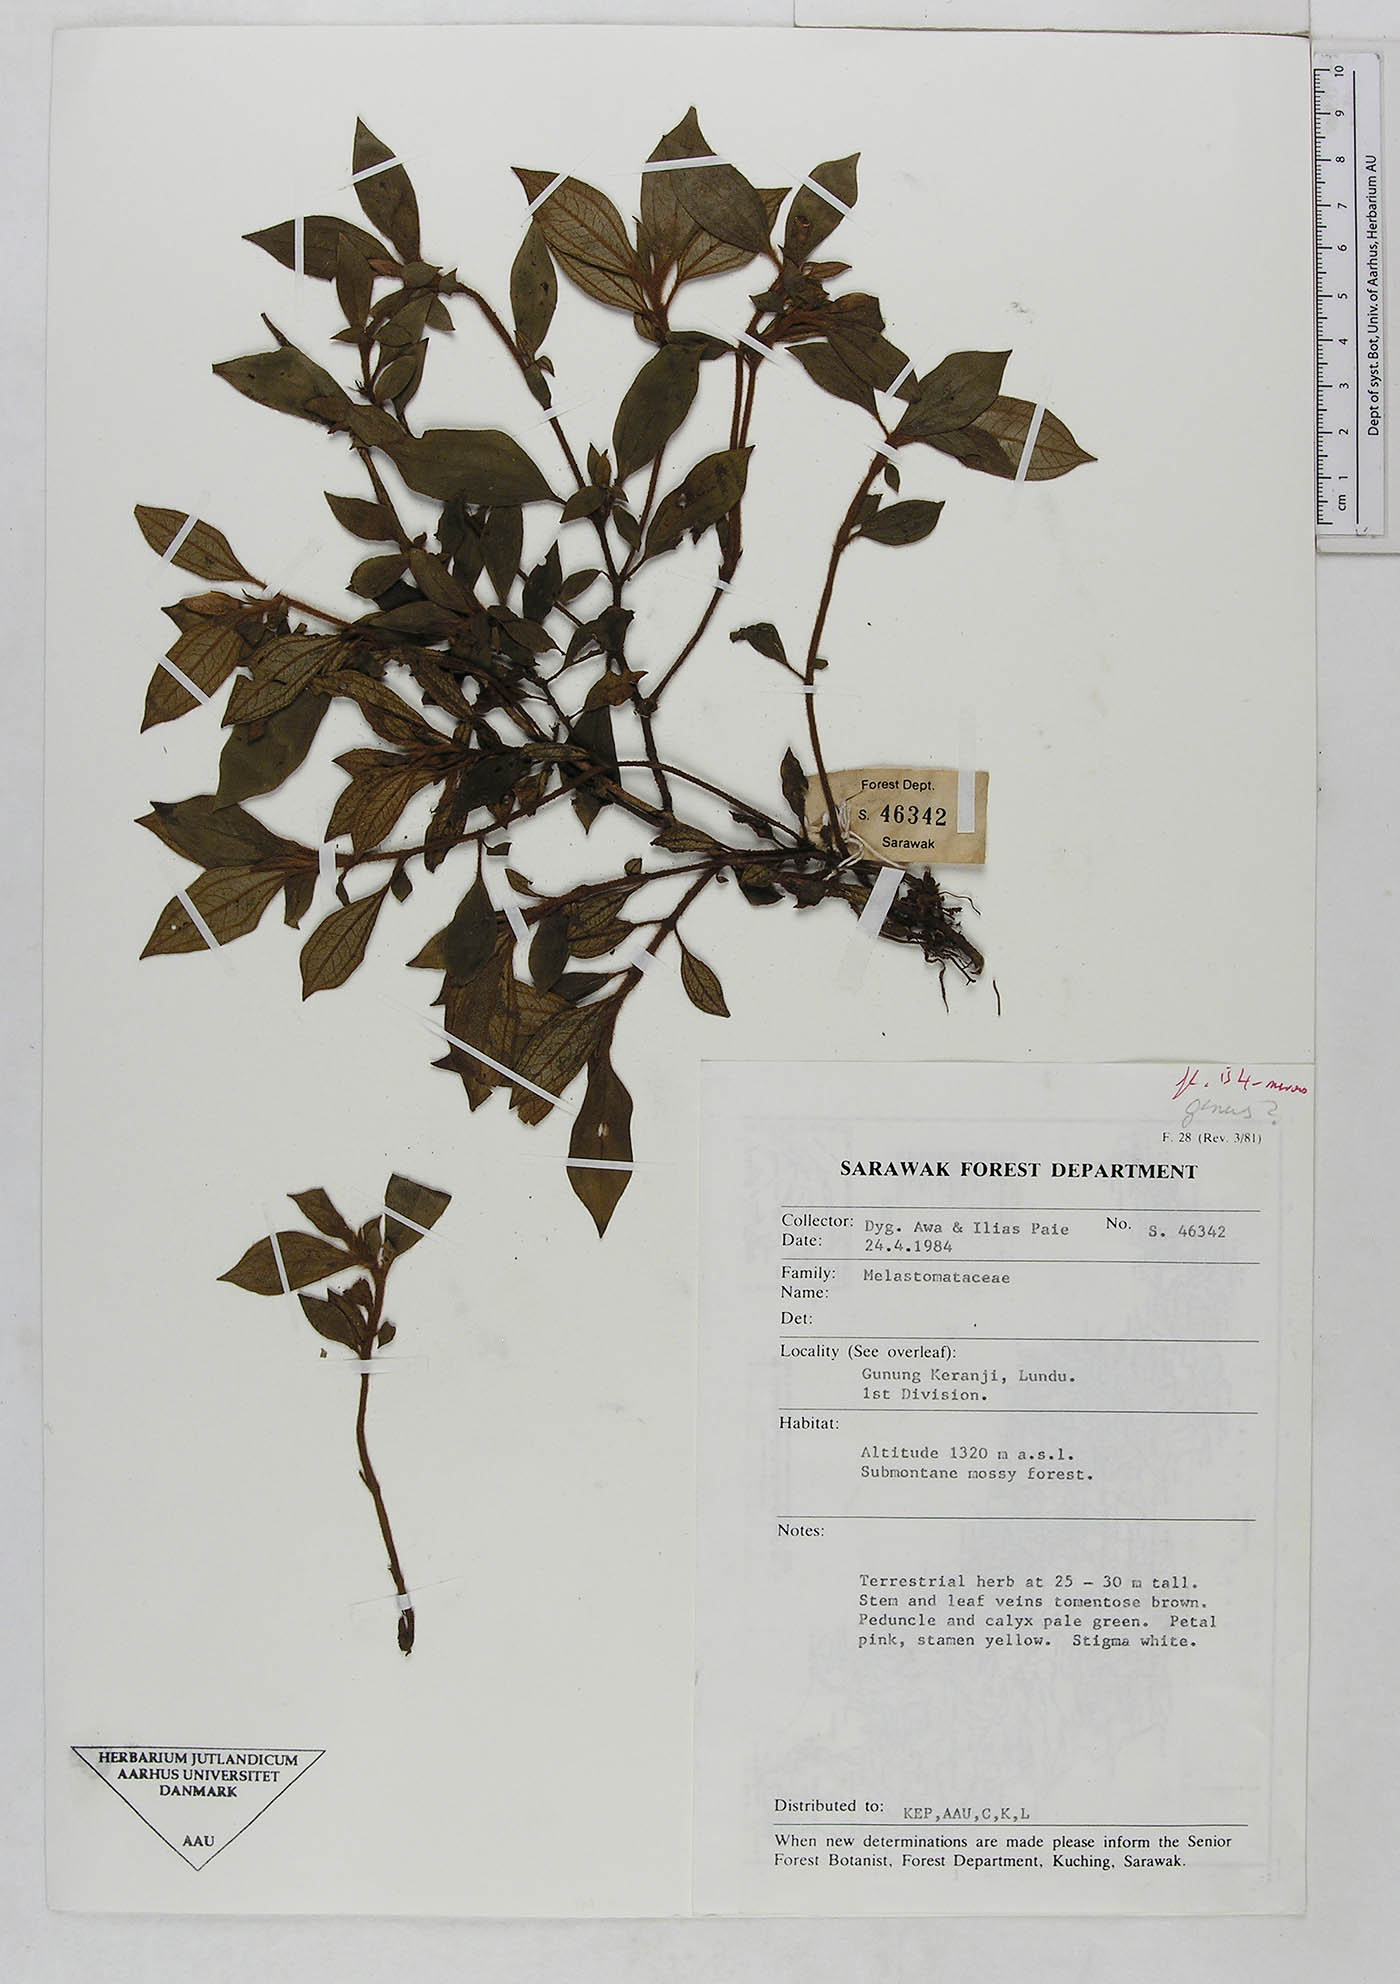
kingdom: Plantae
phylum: Tracheophyta
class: Magnoliopsida
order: Myrtales
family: Melastomataceae
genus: Sonerila
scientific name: Sonerila
